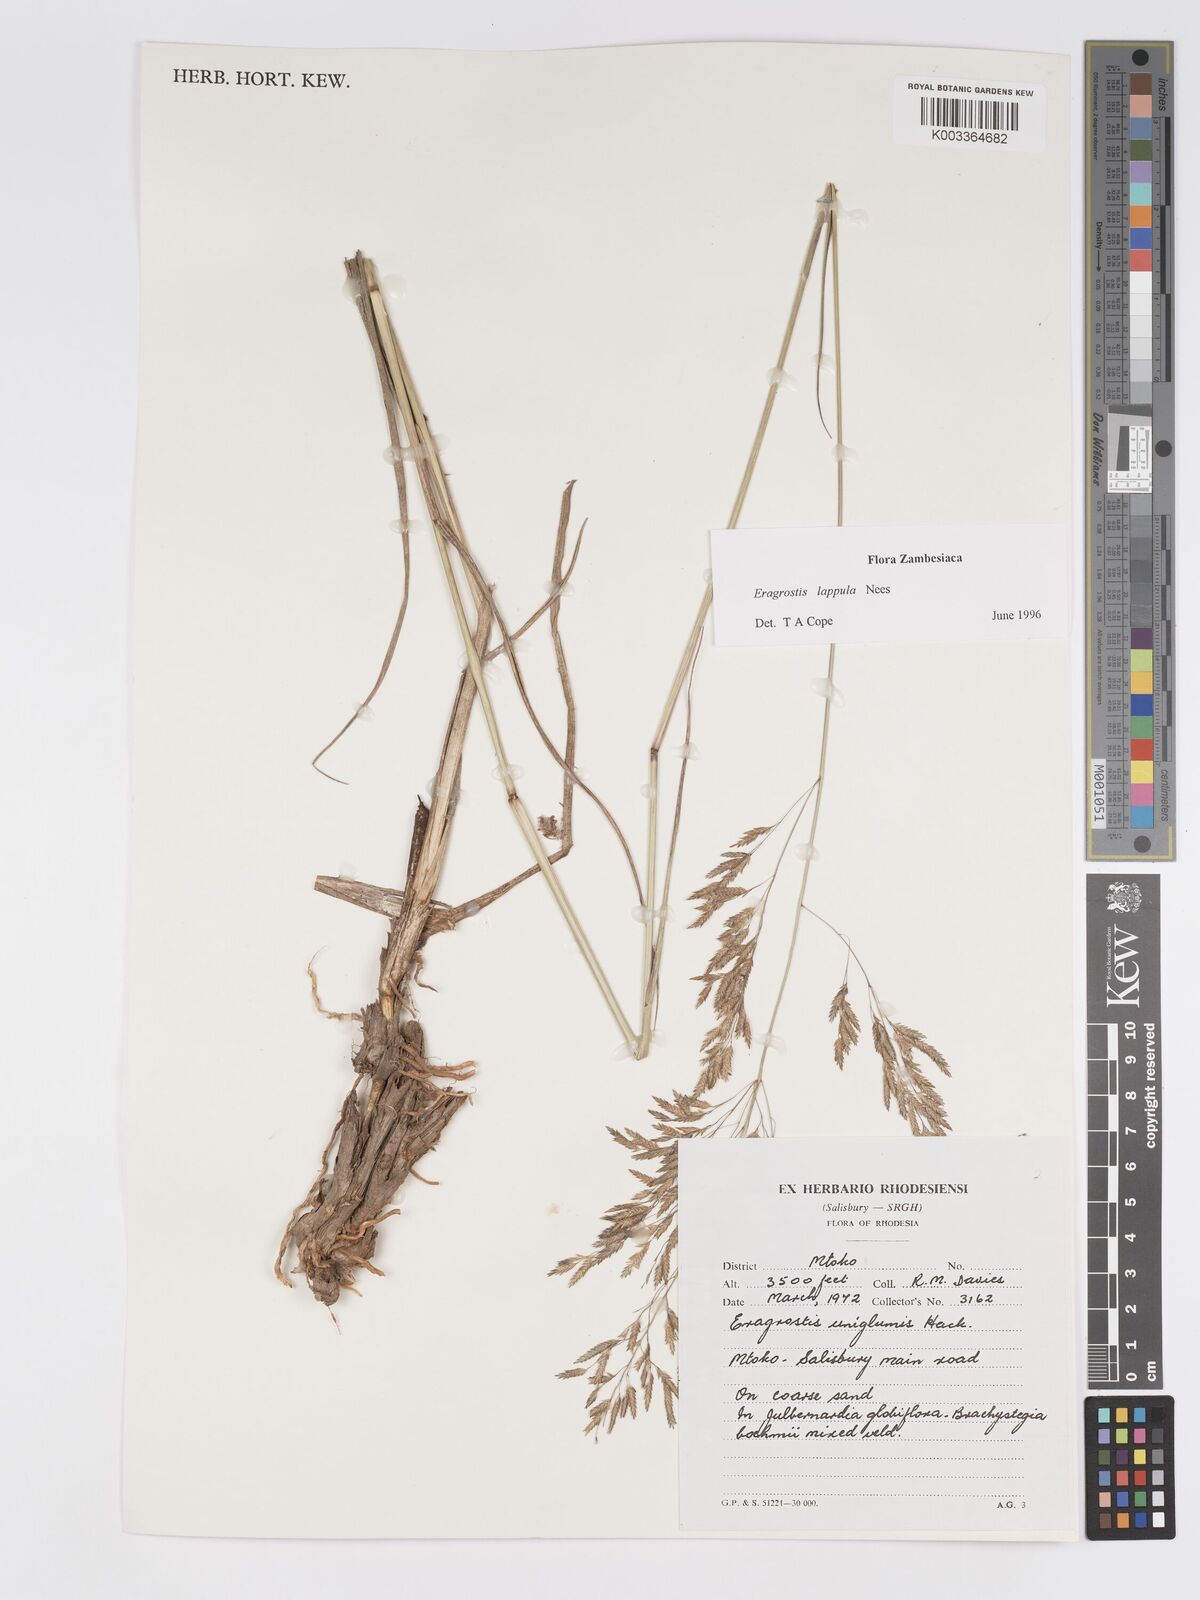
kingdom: Plantae
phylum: Tracheophyta
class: Liliopsida
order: Poales
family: Poaceae
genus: Eragrostis
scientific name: Eragrostis lappula
